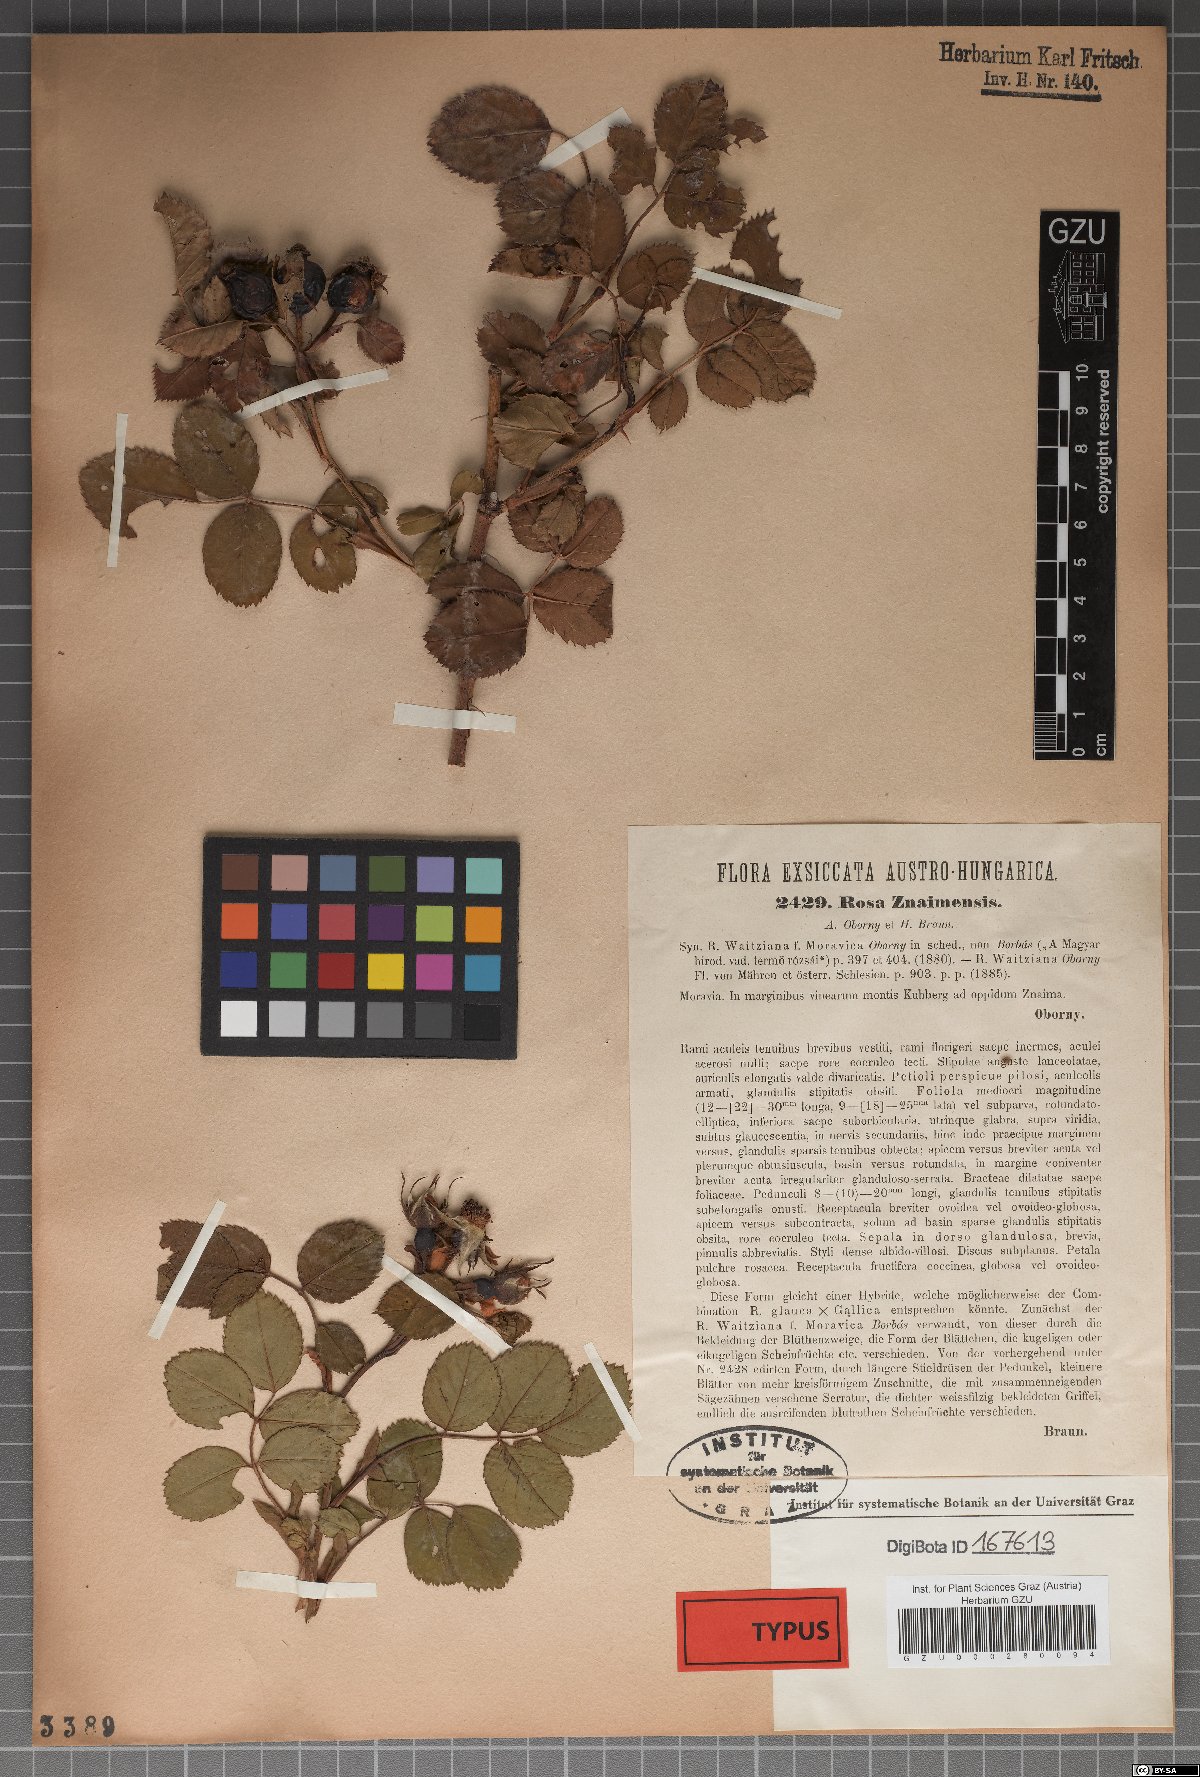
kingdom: Plantae
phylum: Tracheophyta
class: Magnoliopsida
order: Rosales
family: Rosaceae
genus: Rosa
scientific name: Rosa znaimensis
